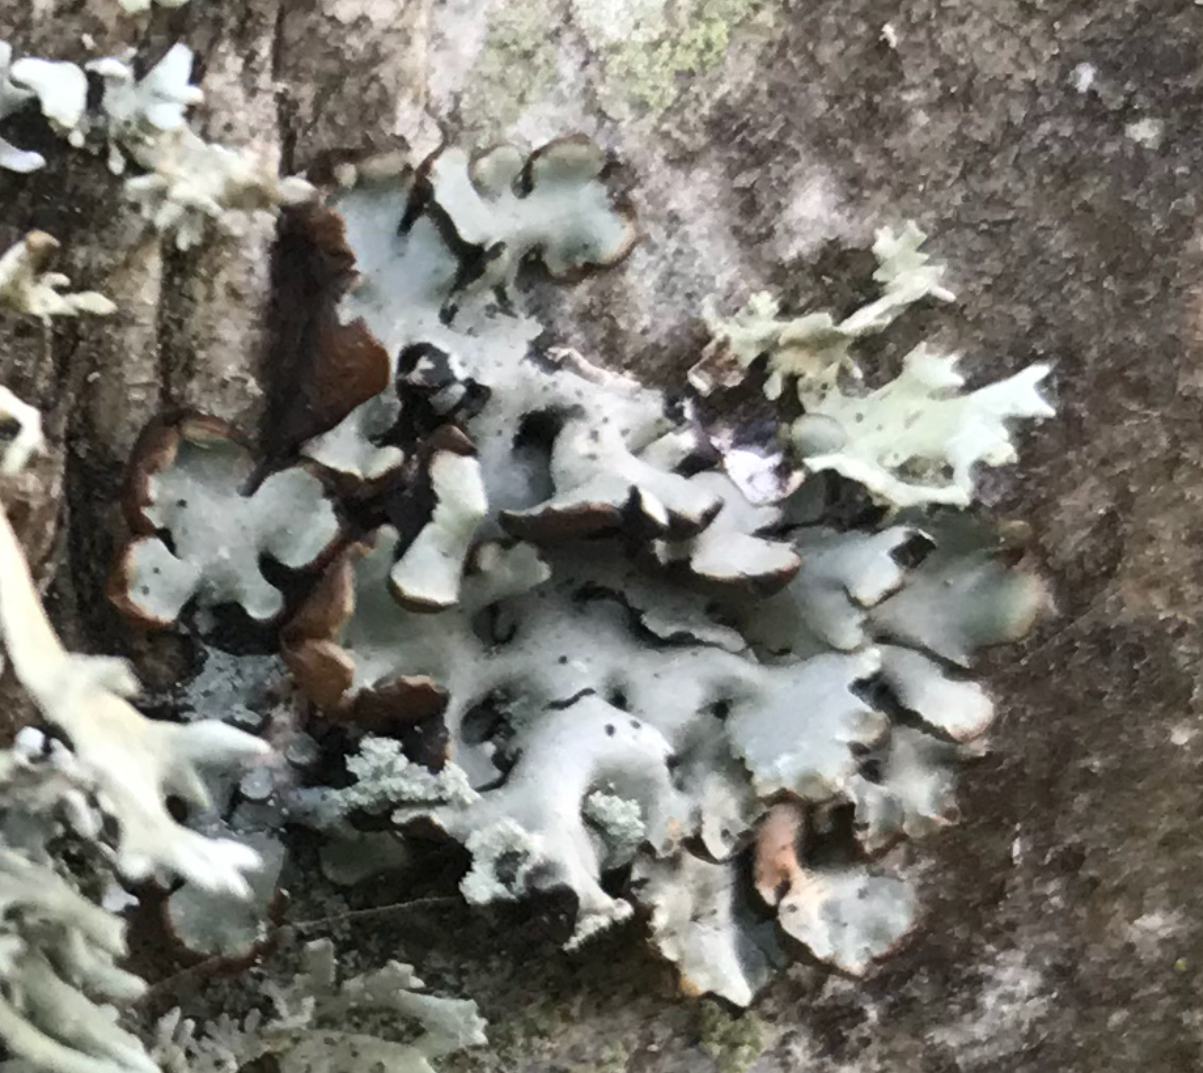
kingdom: Fungi
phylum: Ascomycota
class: Lecanoromycetes
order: Lecanorales
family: Parmeliaceae
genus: Hypogymnia
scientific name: Hypogymnia physodes
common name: almindelig kvistlav
